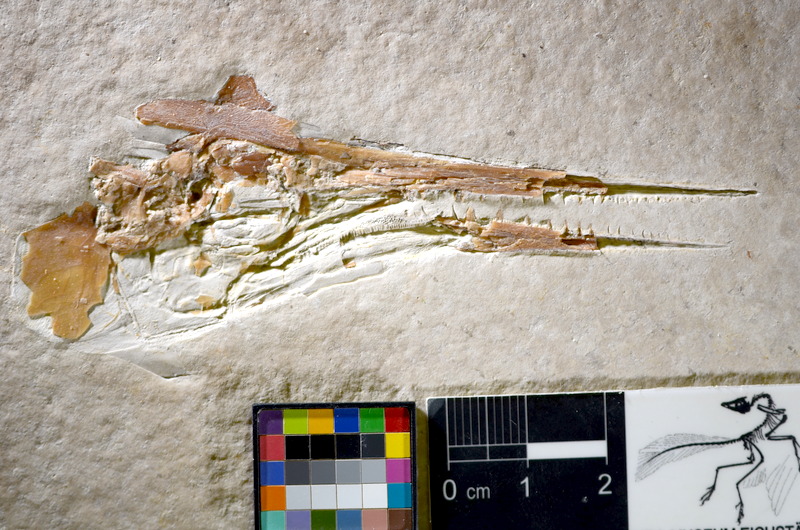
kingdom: Animalia
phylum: Chordata
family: Aspidorhynchidae
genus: Belonostomus
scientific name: Belonostomus
